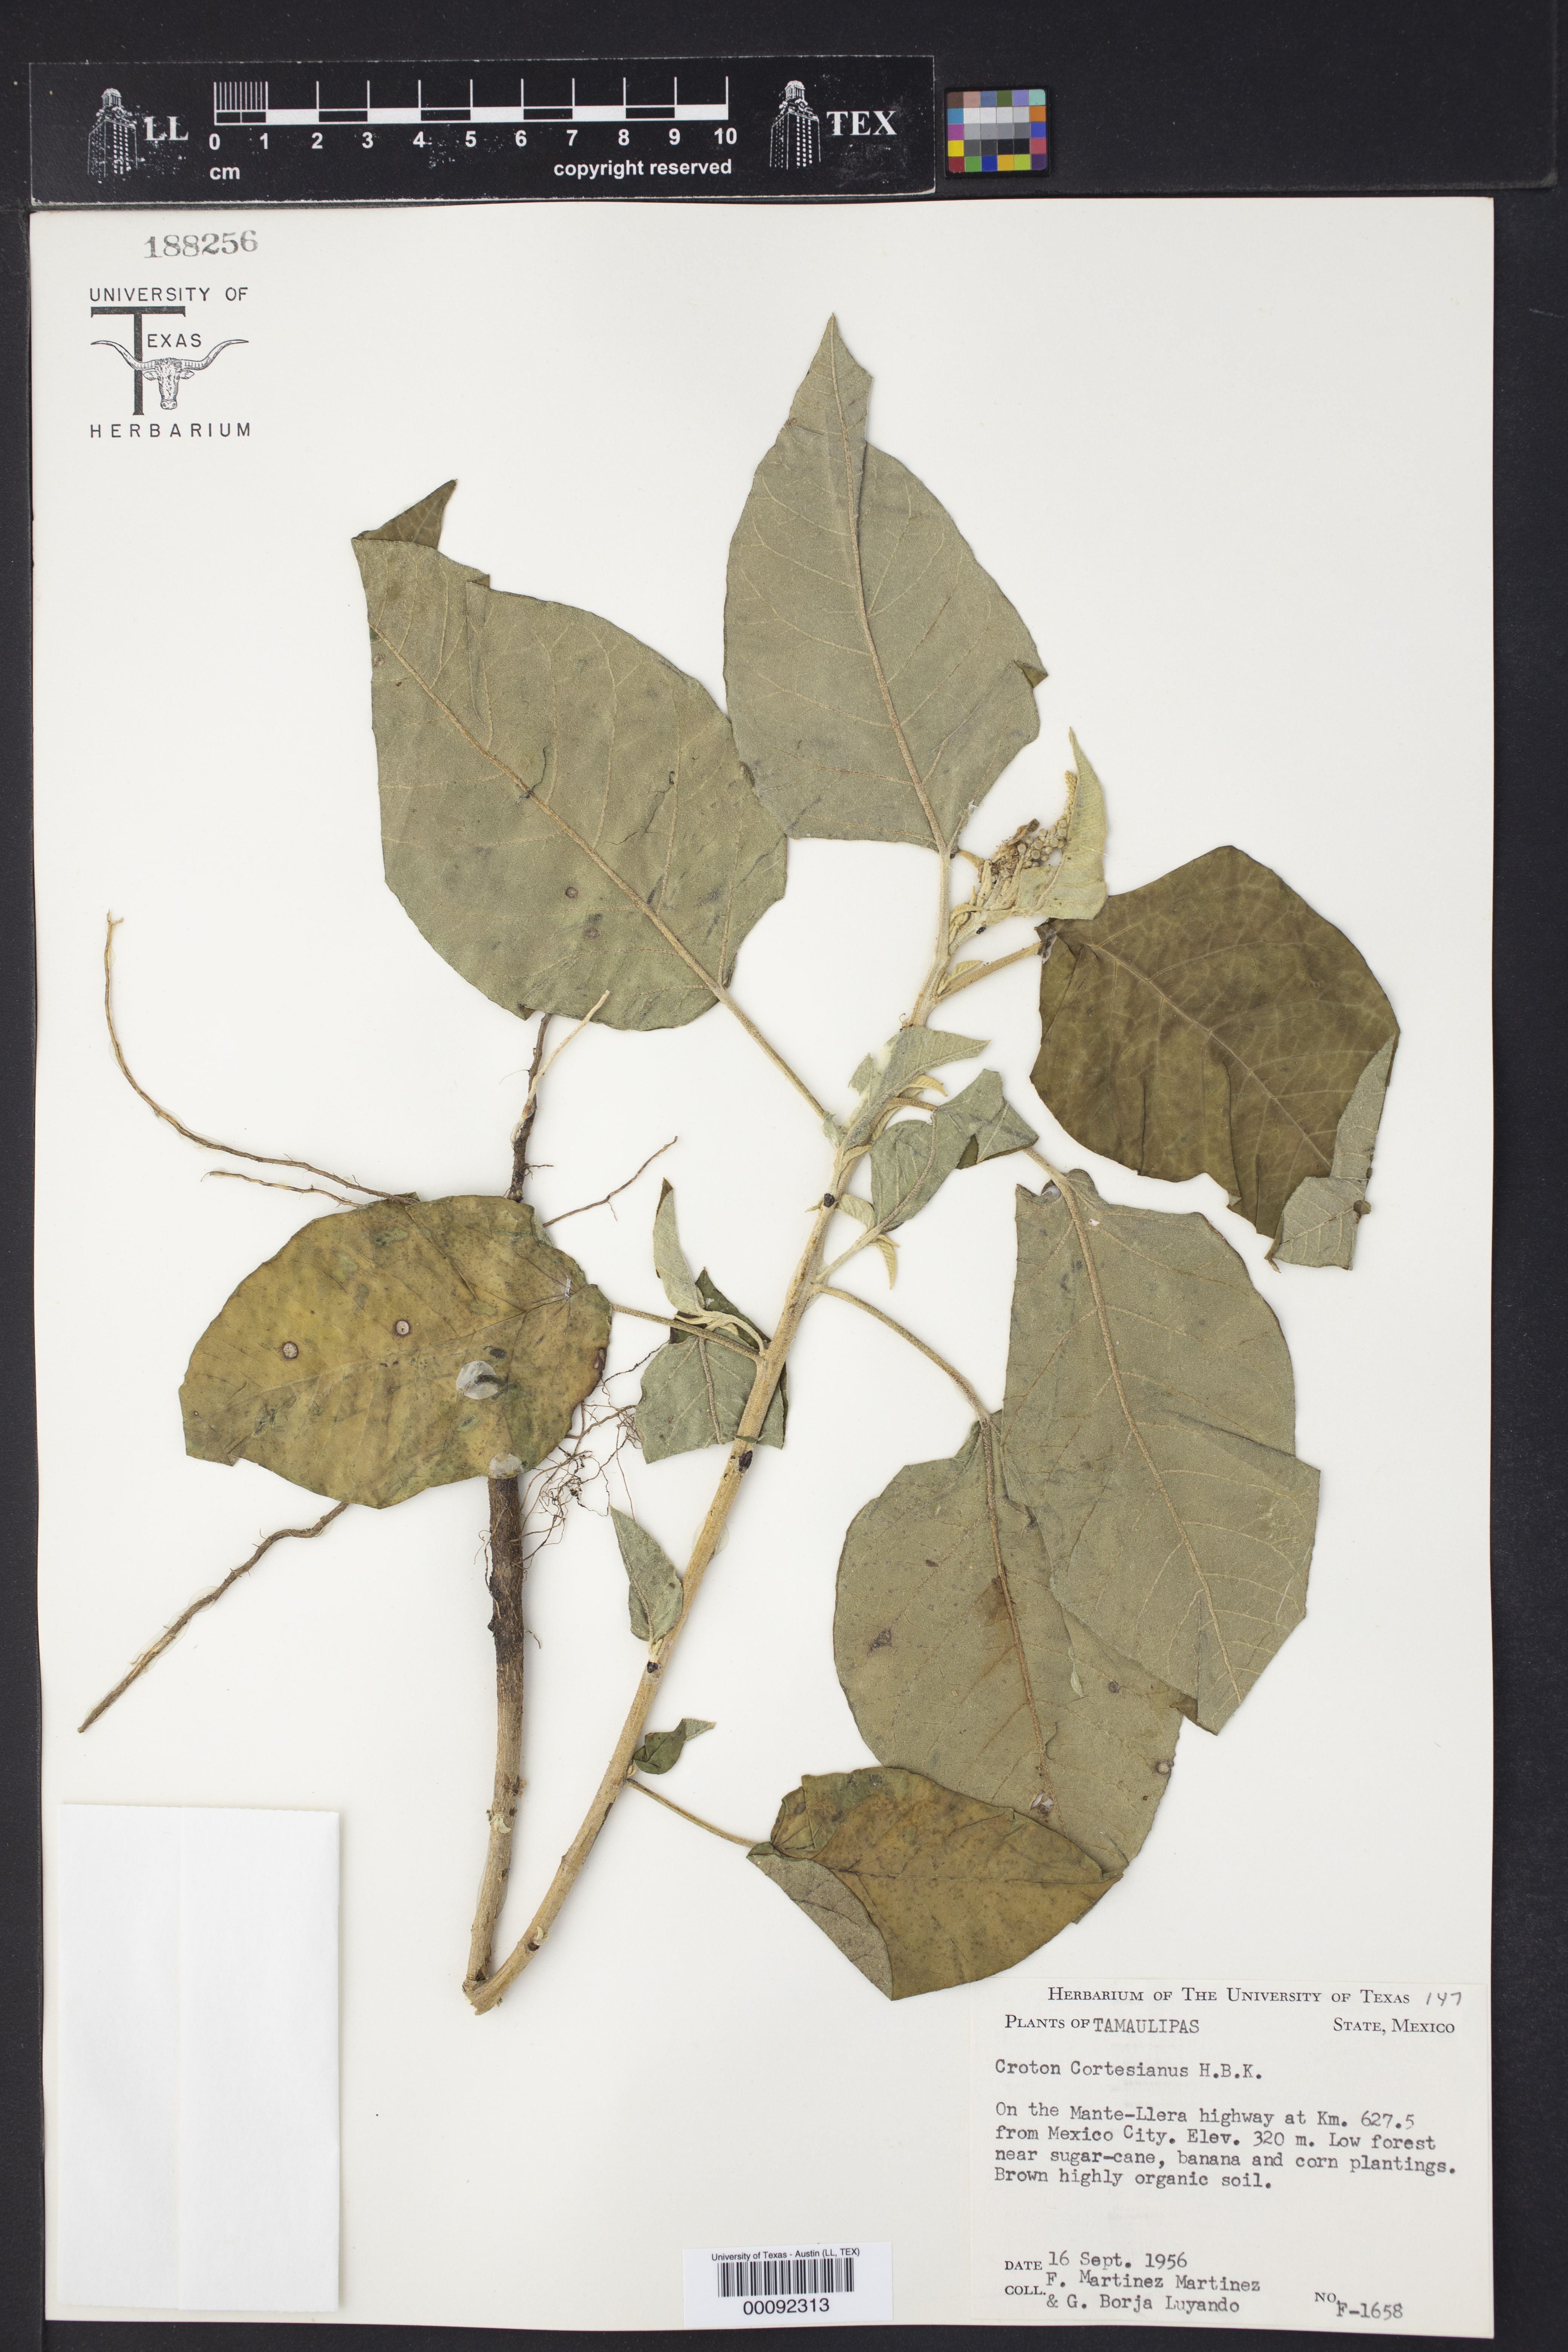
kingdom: Plantae
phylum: Tracheophyta
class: Magnoliopsida
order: Malpighiales
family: Euphorbiaceae
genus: Croton
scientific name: Croton cortesianus
